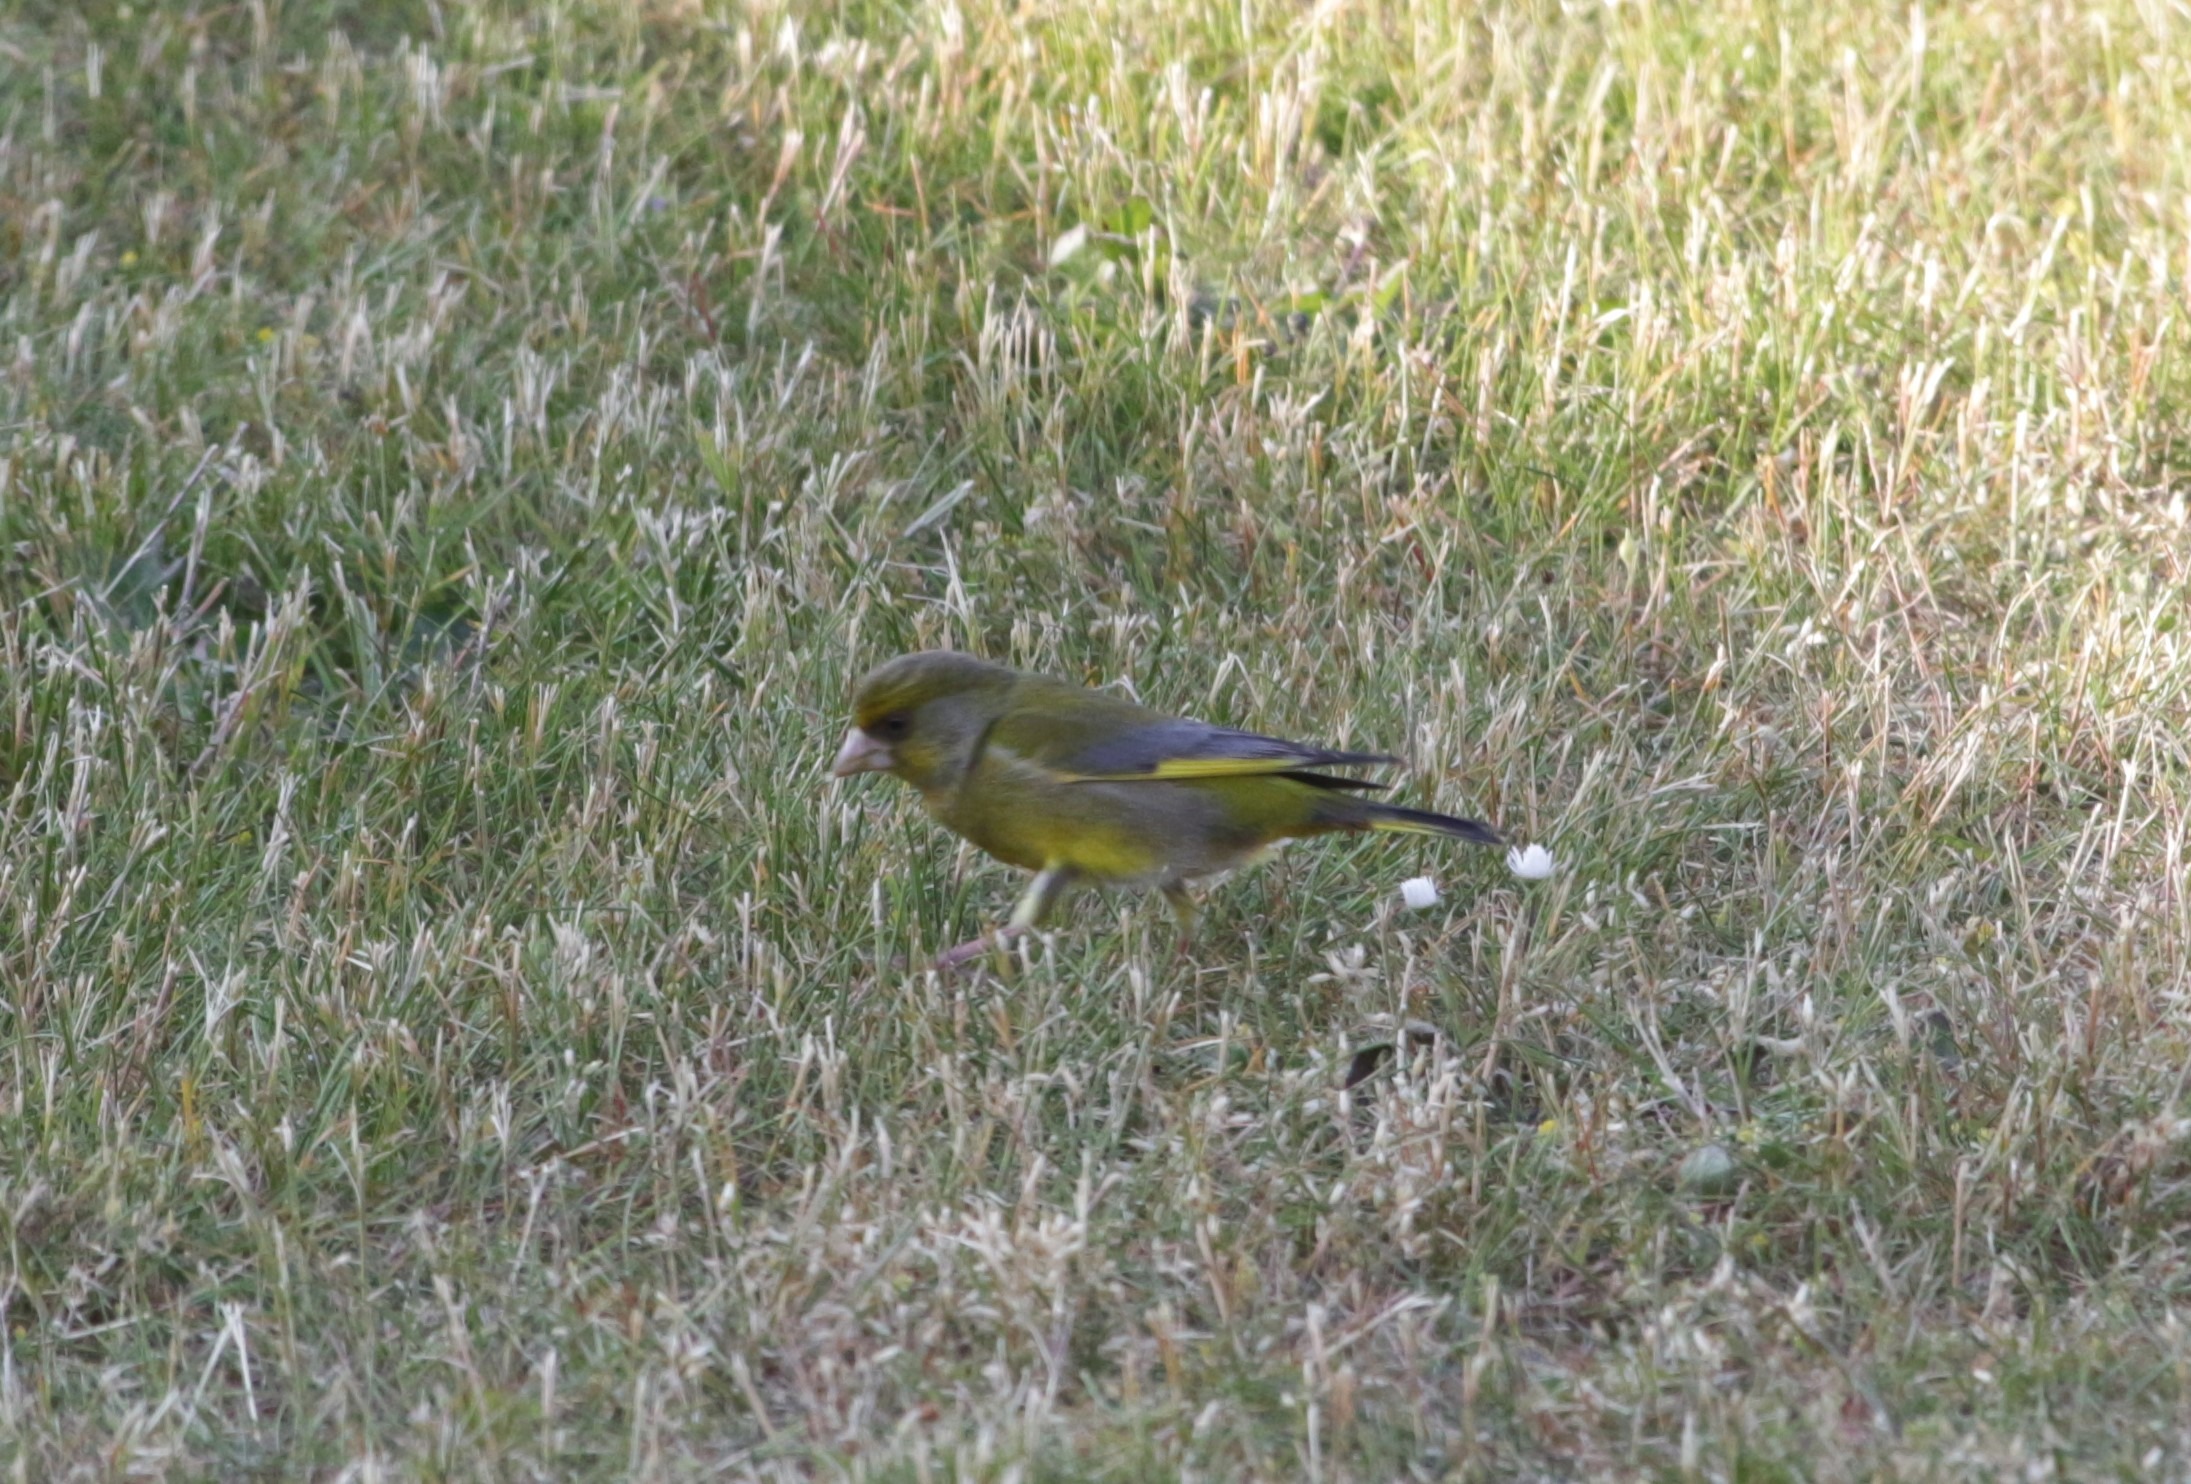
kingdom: Plantae
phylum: Tracheophyta
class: Liliopsida
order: Poales
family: Poaceae
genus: Chloris
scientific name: Chloris chloris
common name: Grønirisk
